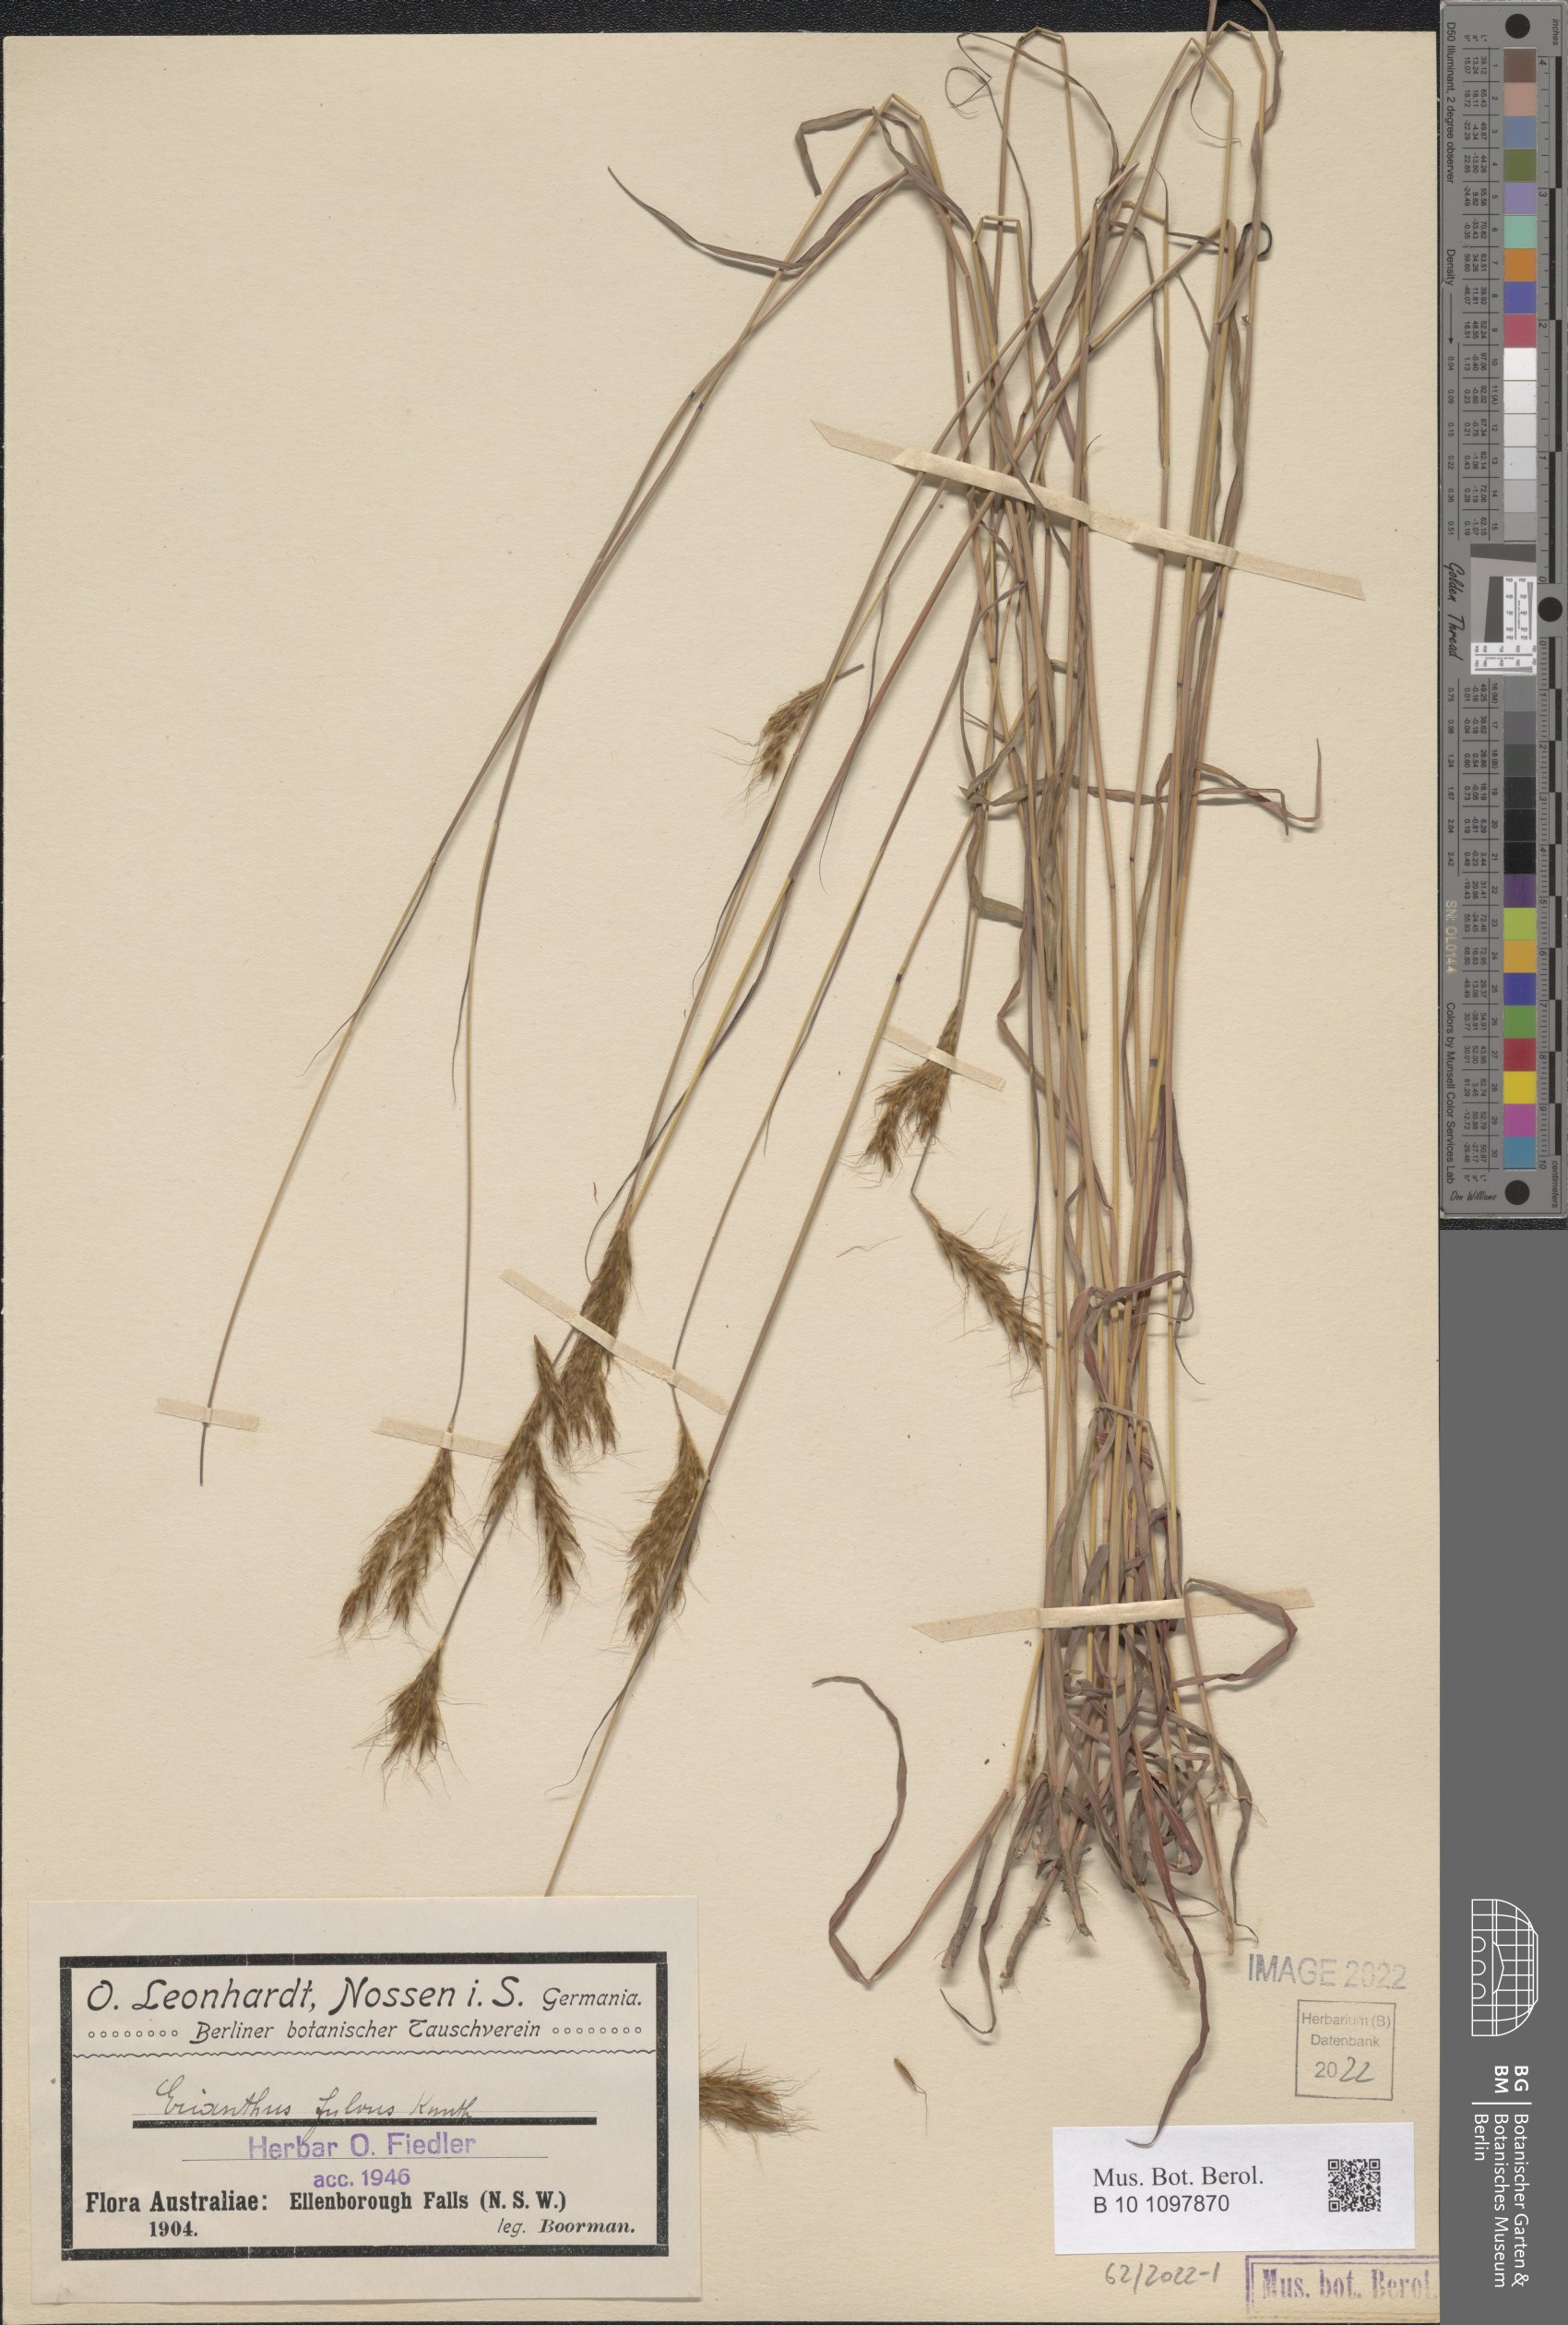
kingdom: Plantae
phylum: Tracheophyta
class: Liliopsida
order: Poales
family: Poaceae
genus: Eulalia
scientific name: Eulalia aurea
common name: Silky browntop
